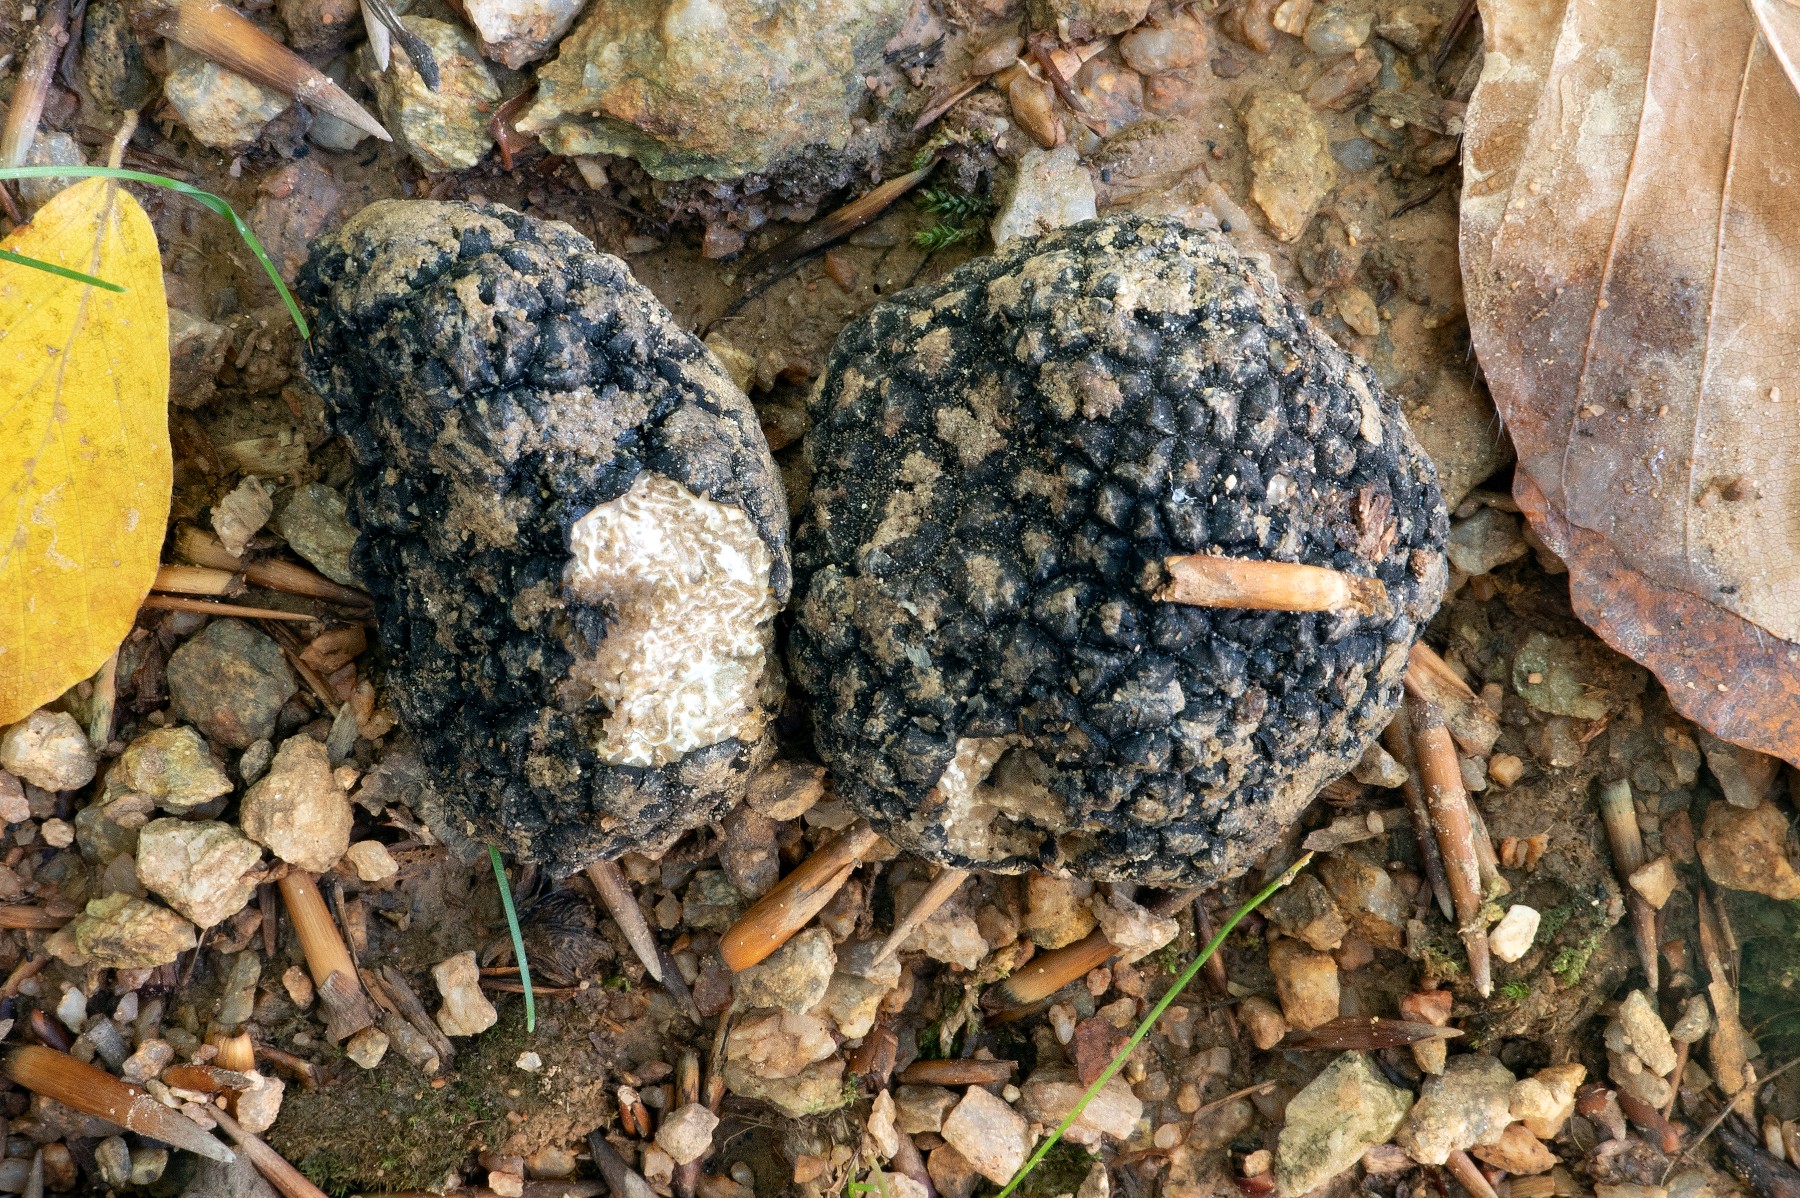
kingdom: Fungi
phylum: Ascomycota
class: Pezizomycetes
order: Pezizales
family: Tuberaceae
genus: Tuber
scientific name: Tuber aestivum
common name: sommer-trøffel
